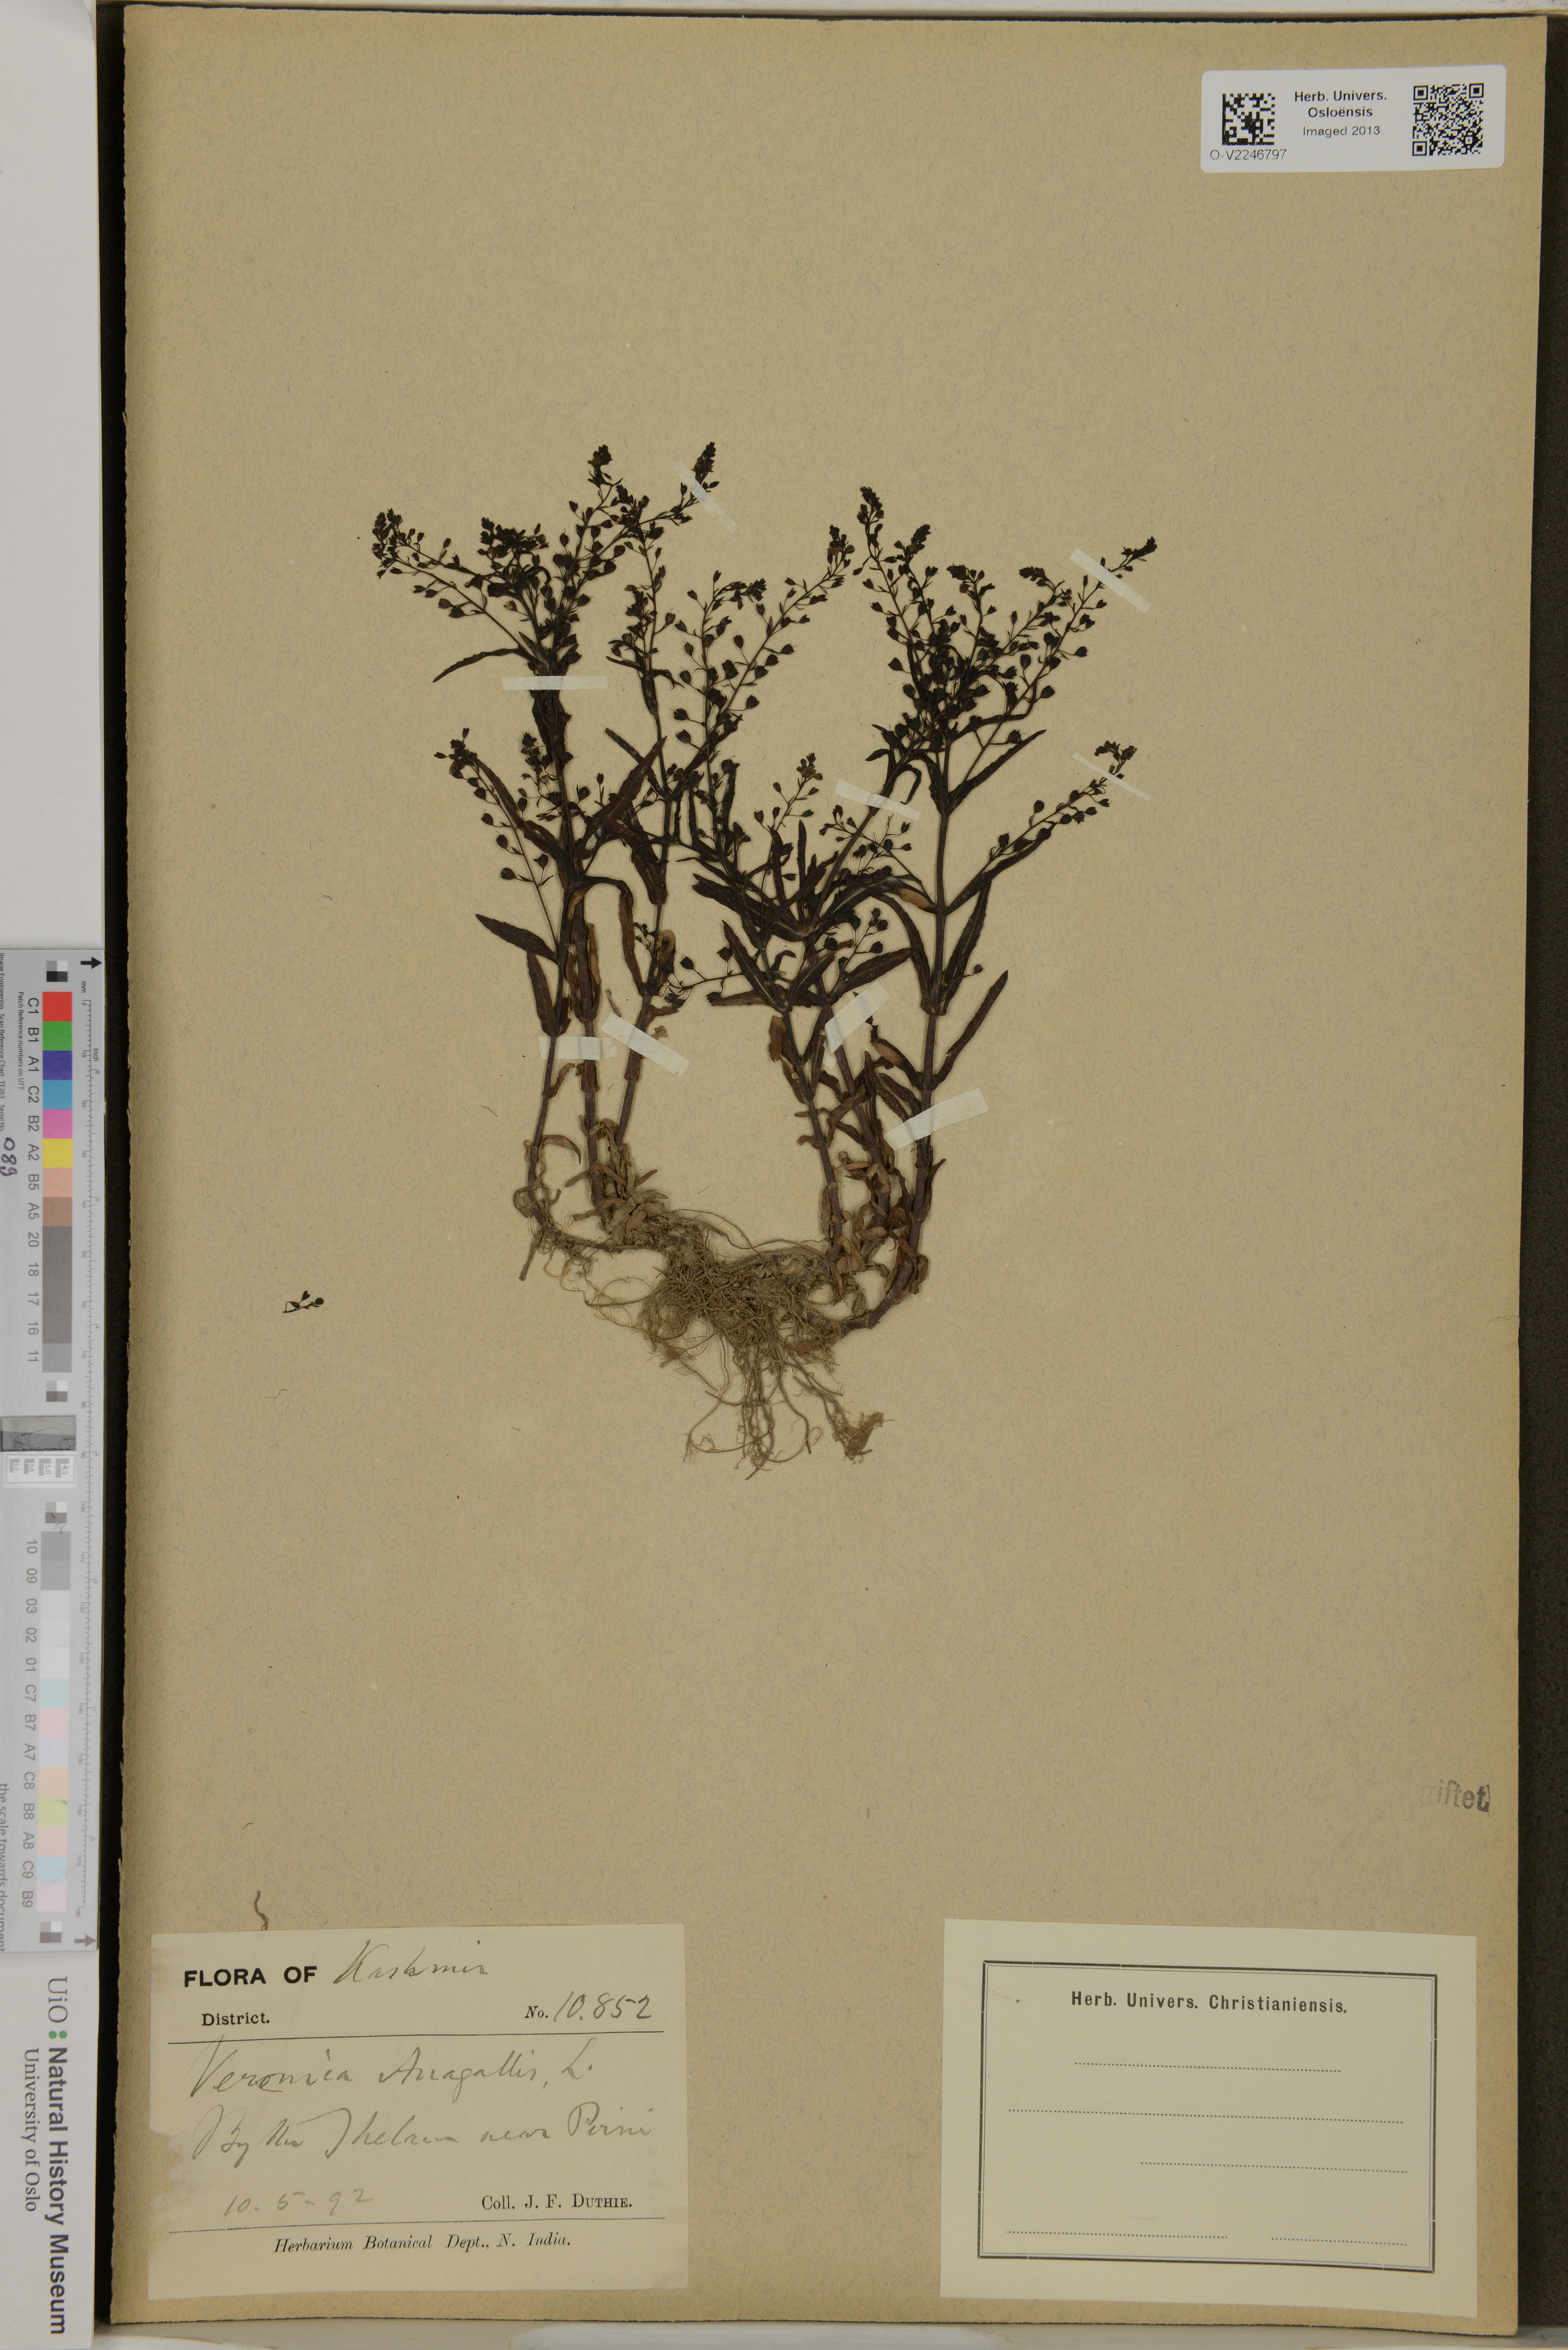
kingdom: Plantae
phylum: Tracheophyta
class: Magnoliopsida
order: Lamiales
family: Plantaginaceae
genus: Veronica
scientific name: Veronica anagallis-aquatica
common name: Water speedwell
